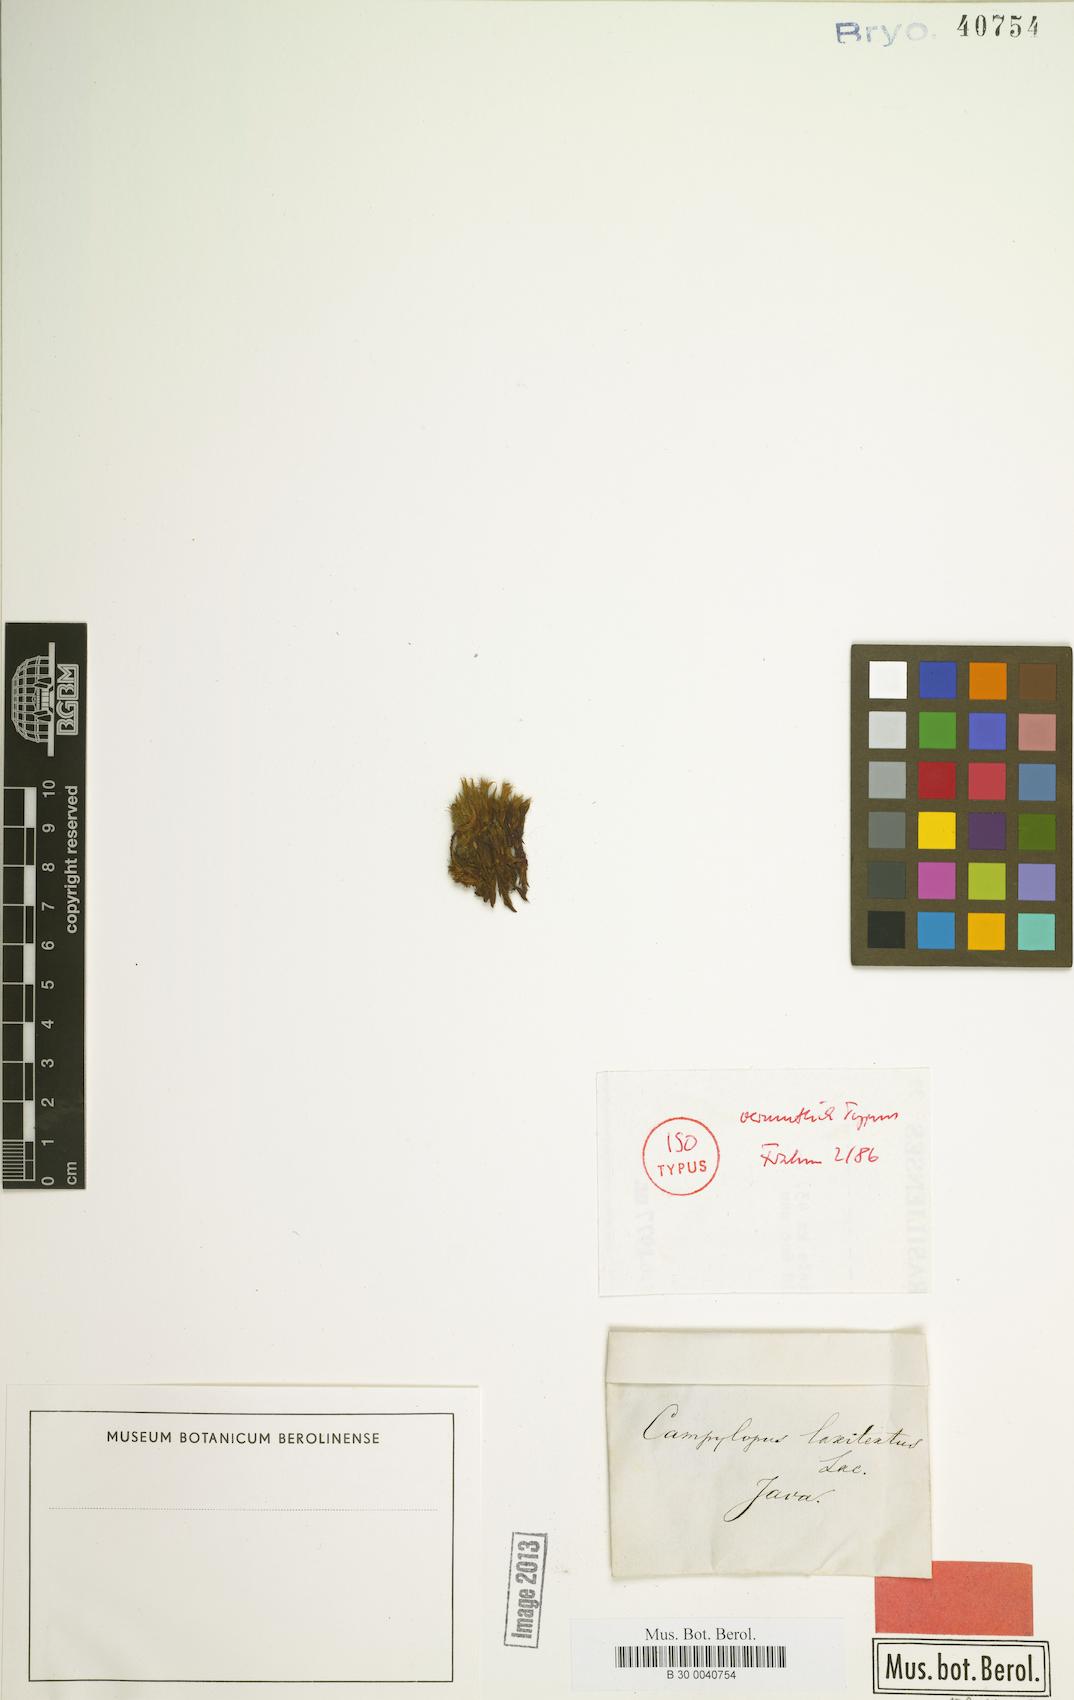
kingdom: Plantae
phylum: Bryophyta
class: Bryopsida
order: Dicranales
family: Leucobryaceae
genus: Campylopus
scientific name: Campylopus laxitextus
